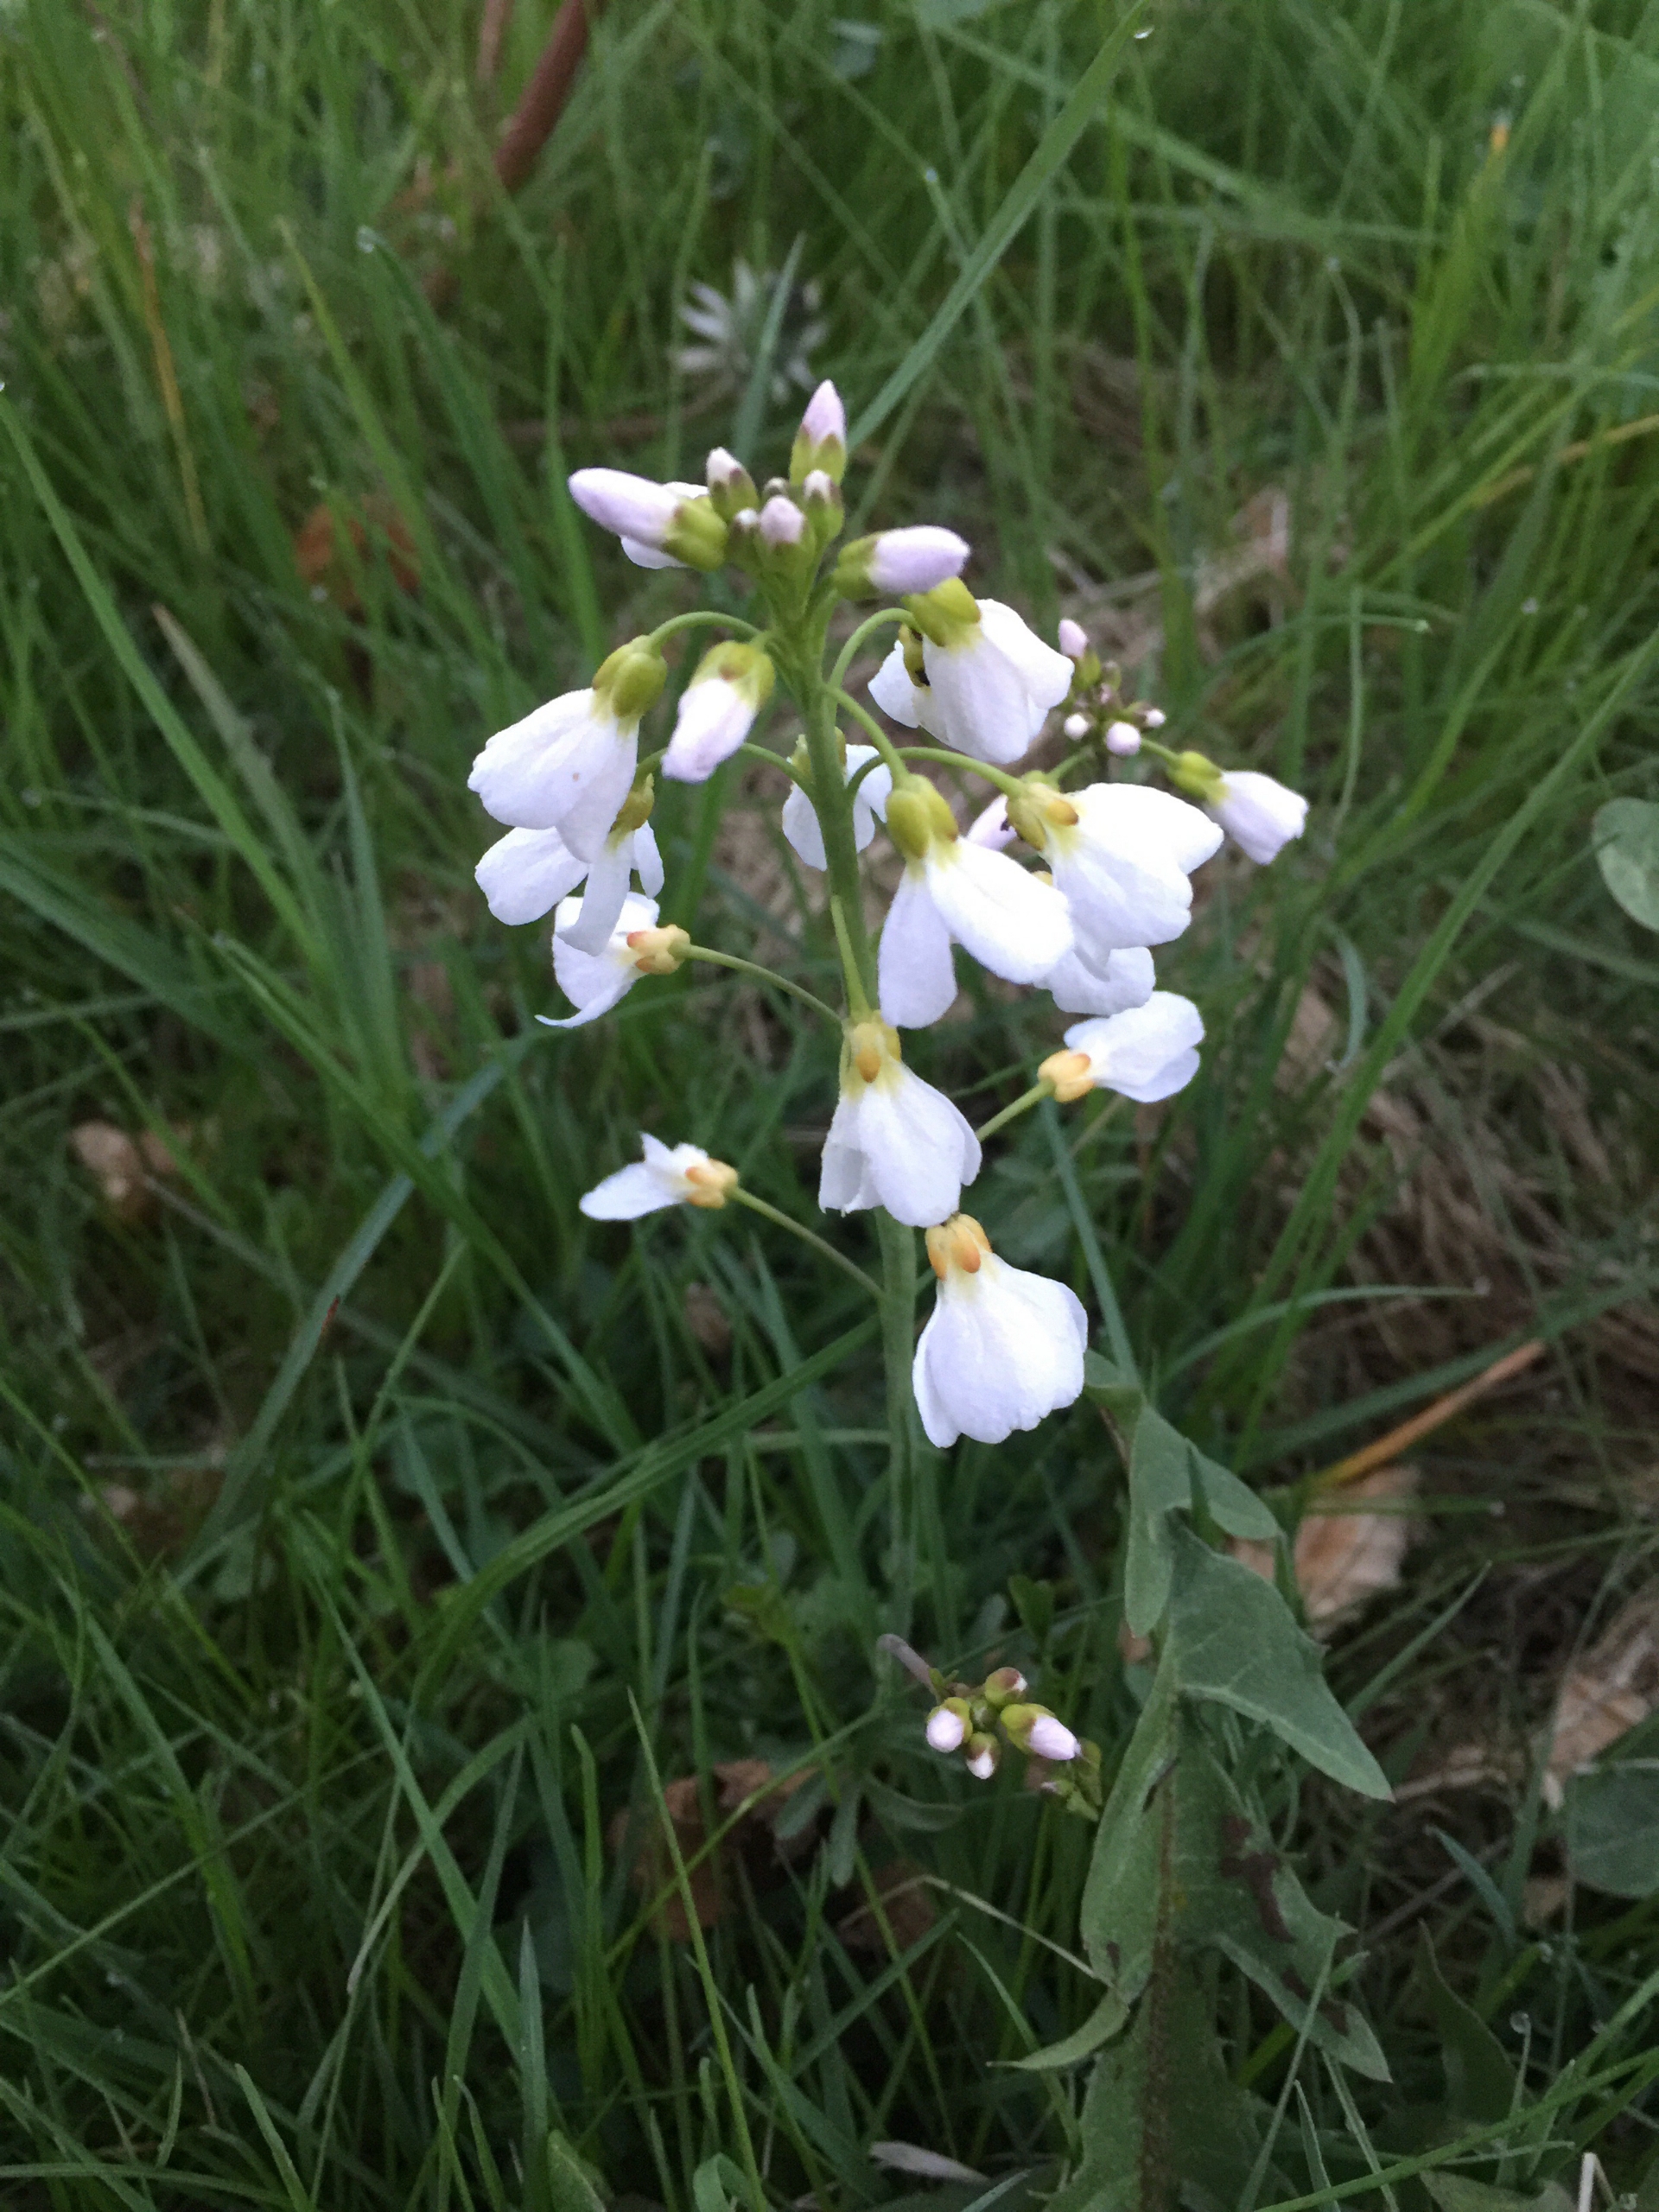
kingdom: Plantae
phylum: Tracheophyta
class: Magnoliopsida
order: Brassicales
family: Brassicaceae
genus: Cardamine
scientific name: Cardamine pratensis
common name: Engkarse
